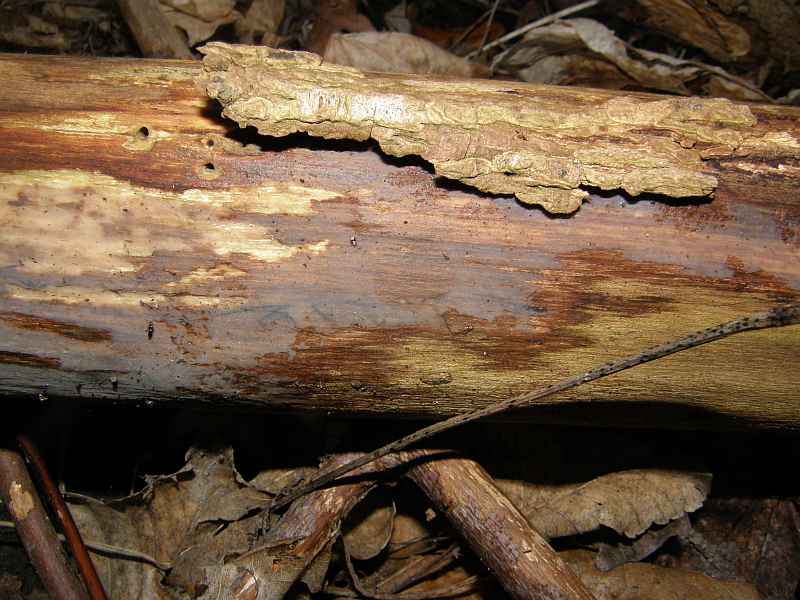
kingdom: Fungi
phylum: Basidiomycota
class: Tremellomycetes
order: Tremellales
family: Exidiaceae
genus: Exidiopsis
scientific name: Exidiopsis effusa
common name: smuk bævrehinde
